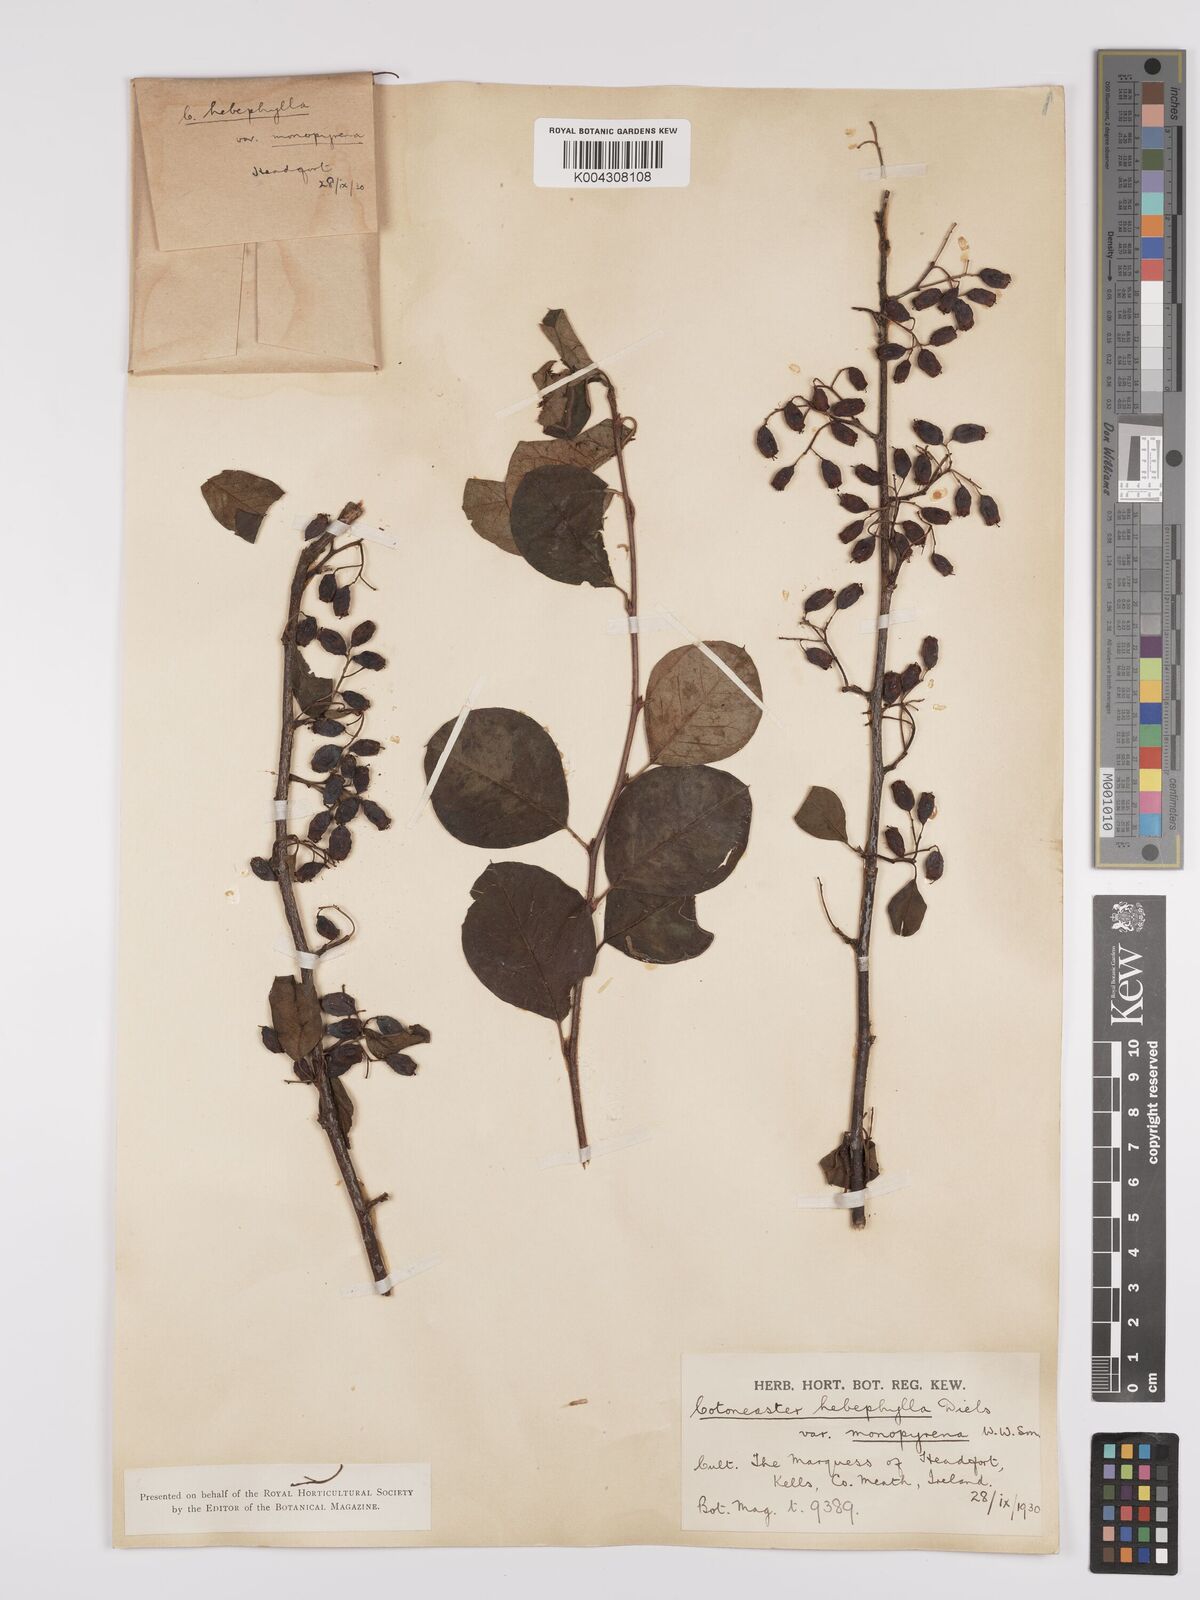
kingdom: Plantae
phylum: Tracheophyta
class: Magnoliopsida
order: Rosales
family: Rosaceae
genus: Cotoneaster
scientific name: Cotoneaster hebephyllus
